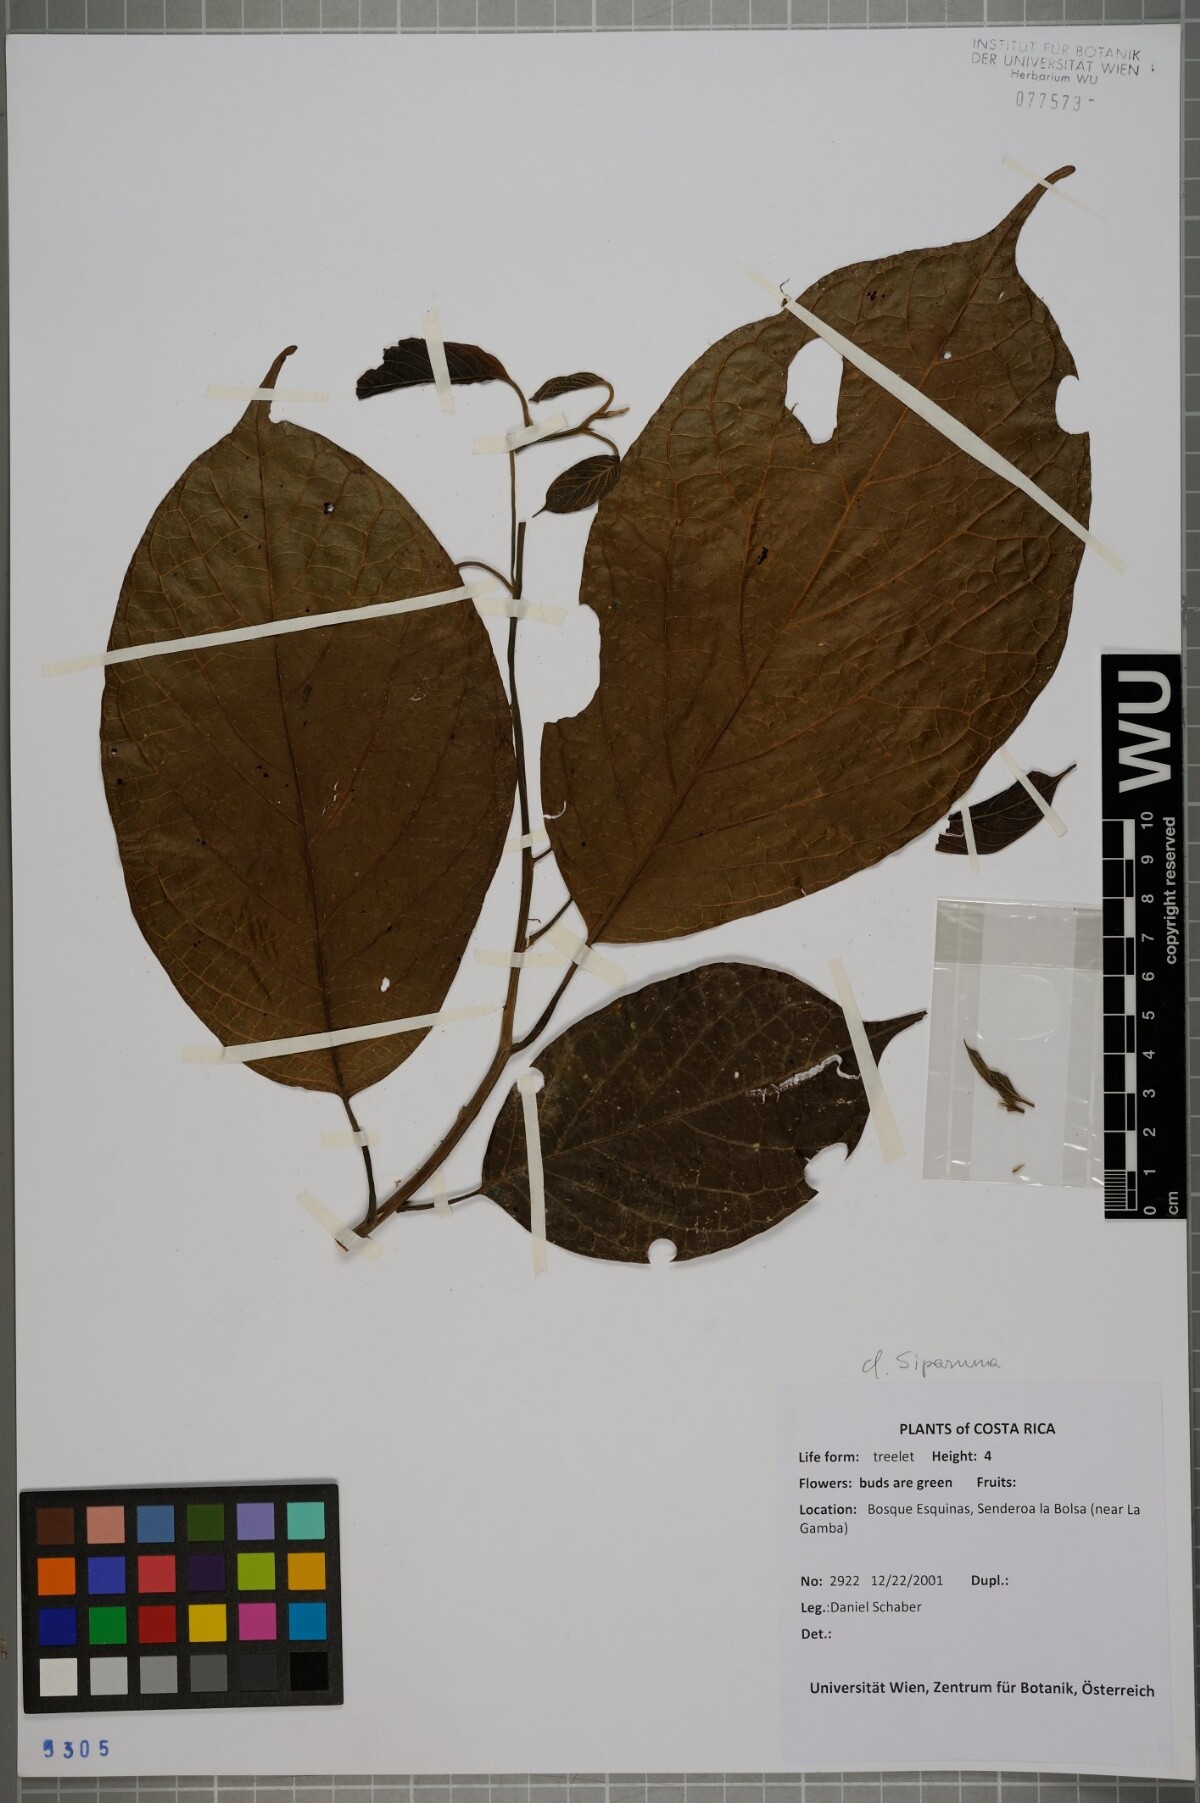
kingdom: Plantae
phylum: Tracheophyta
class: Magnoliopsida
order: Laurales
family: Siparunaceae
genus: Siparuna
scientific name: Siparuna
